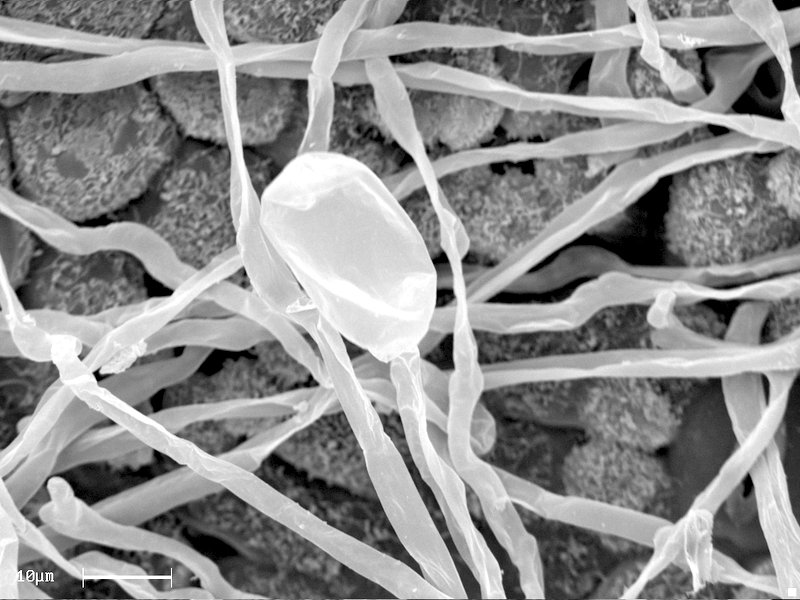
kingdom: Fungi
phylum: Ascomycota
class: Leotiomycetes
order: Helotiales
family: Erysiphaceae
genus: Sawadaea
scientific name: Sawadaea bicornis
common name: Maple mildew
